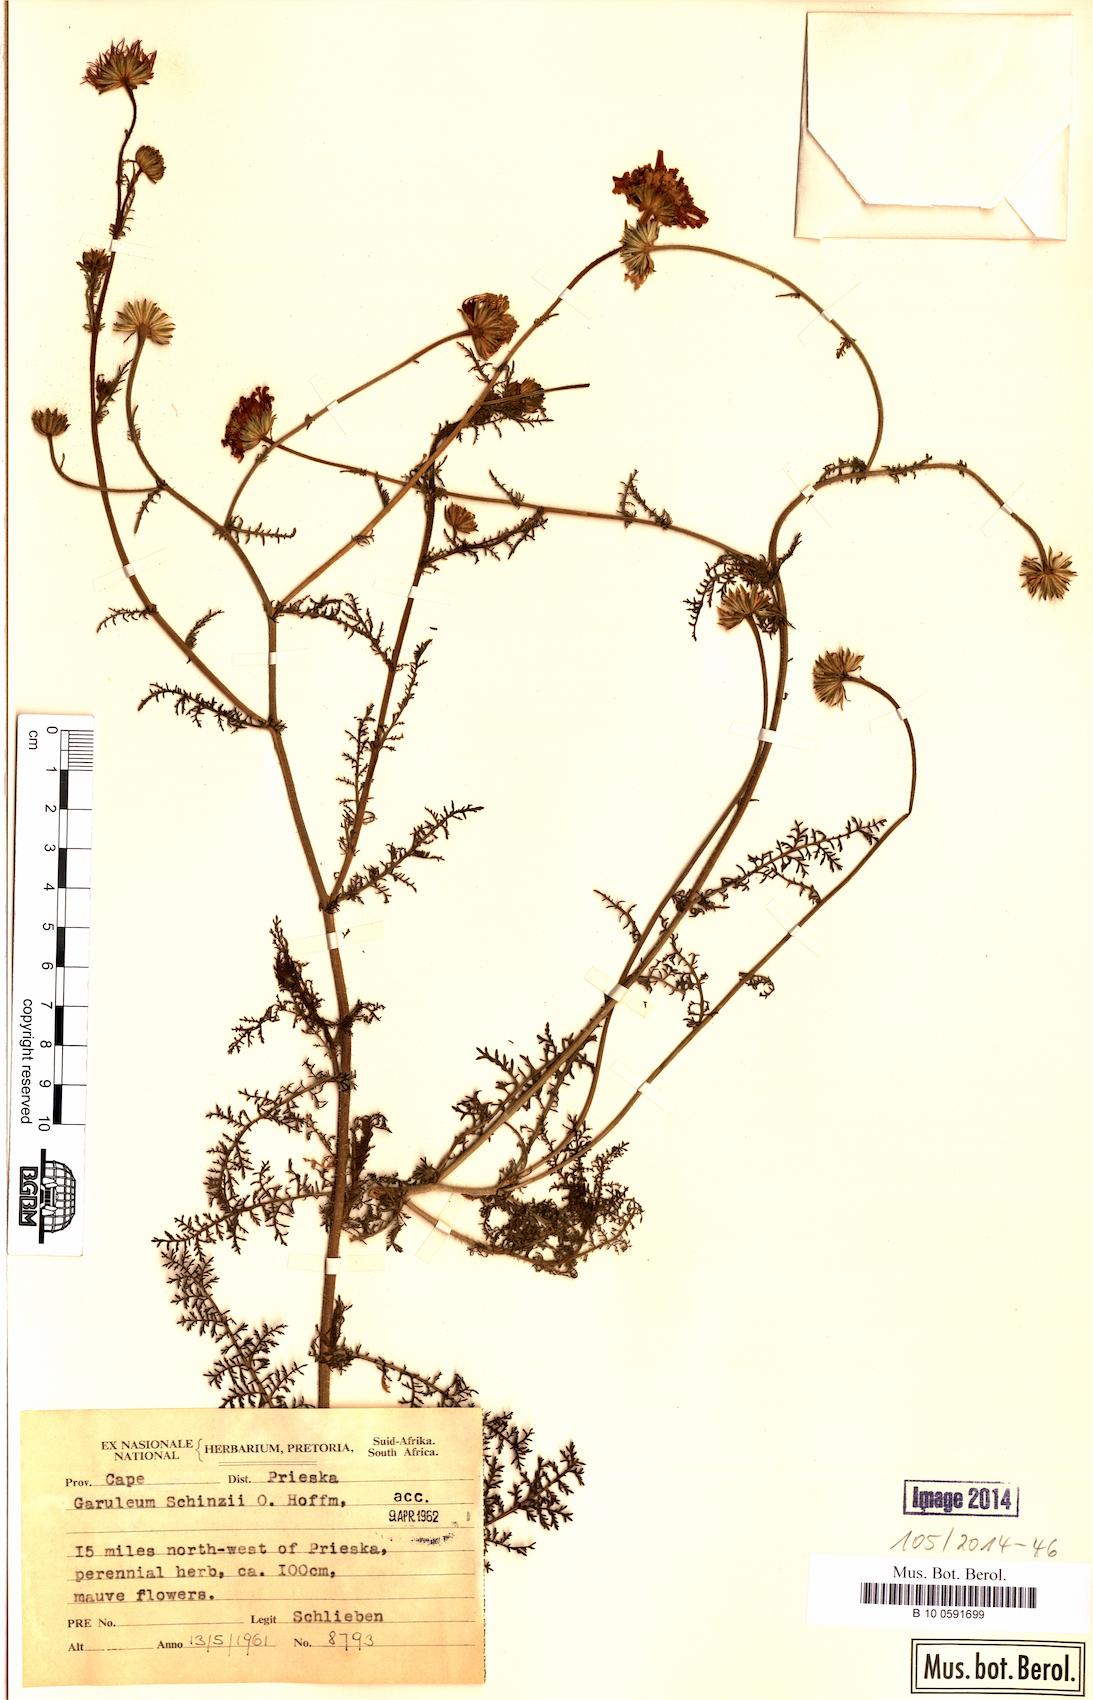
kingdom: Plantae
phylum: Tracheophyta
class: Magnoliopsida
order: Asterales
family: Asteraceae
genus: Garuleum
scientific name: Garuleum schinzii
